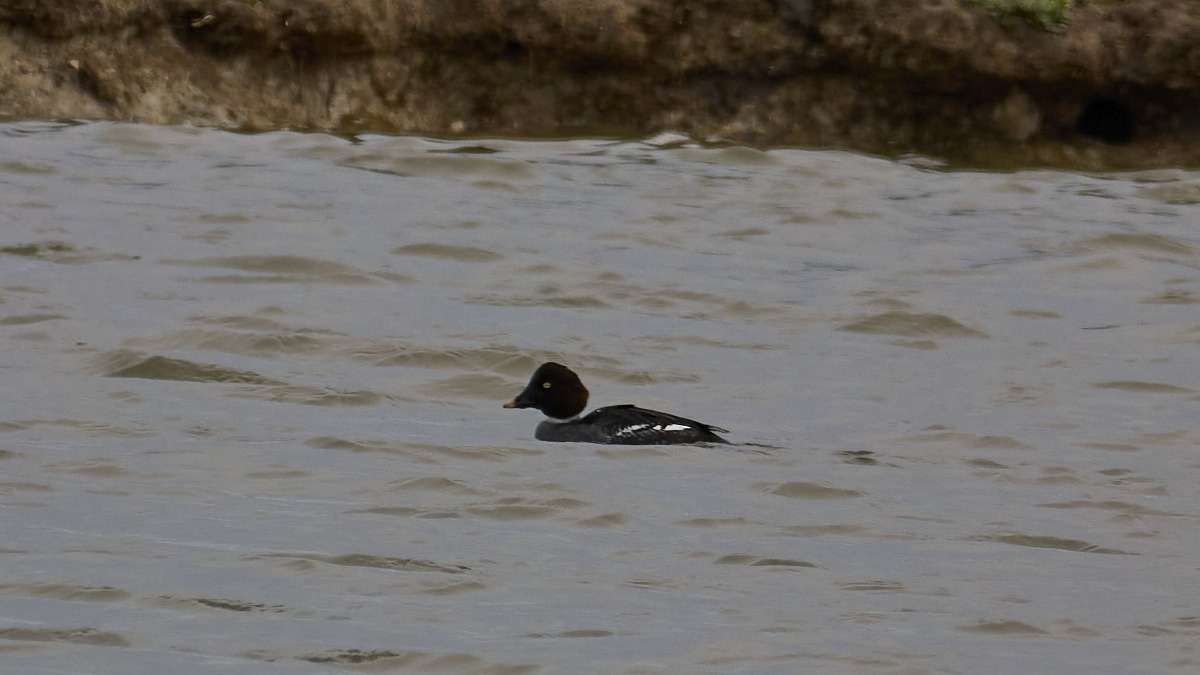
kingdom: Animalia
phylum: Chordata
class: Aves
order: Anseriformes
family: Anatidae
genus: Bucephala
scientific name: Bucephala clangula
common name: Hvinand
